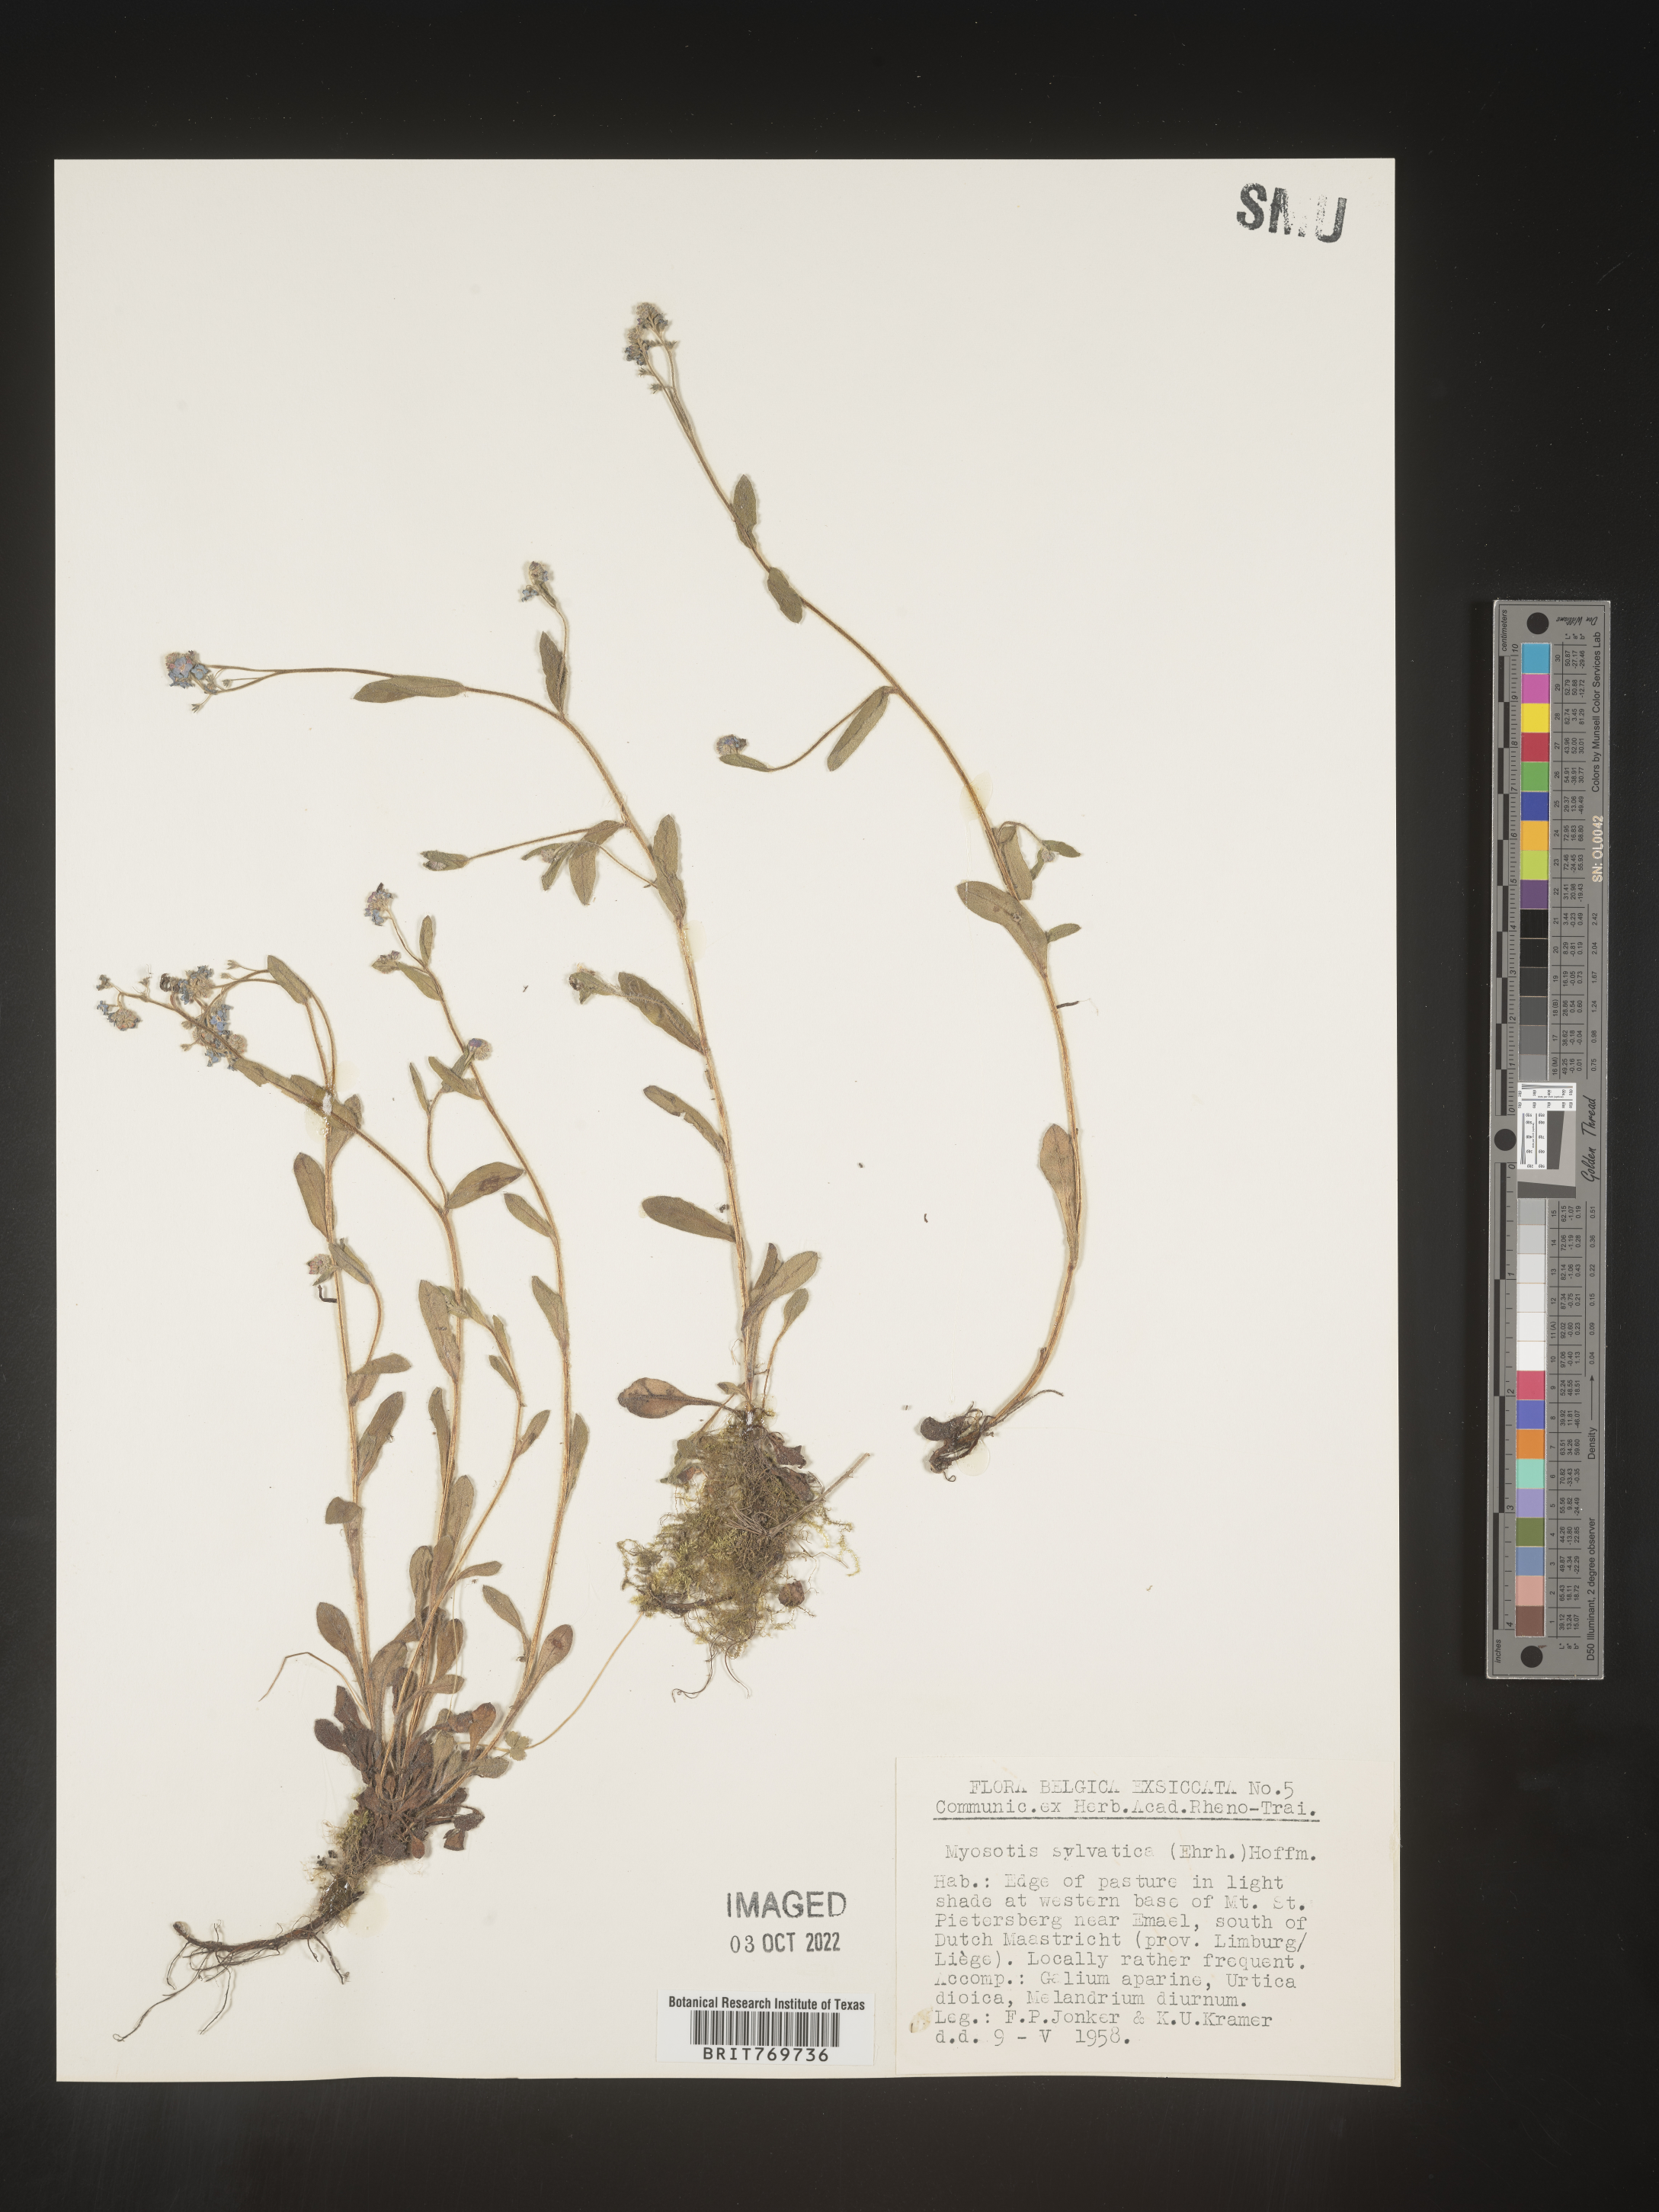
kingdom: Plantae
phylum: Tracheophyta
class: Magnoliopsida
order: Boraginales
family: Boraginaceae
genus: Myosotis
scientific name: Myosotis
